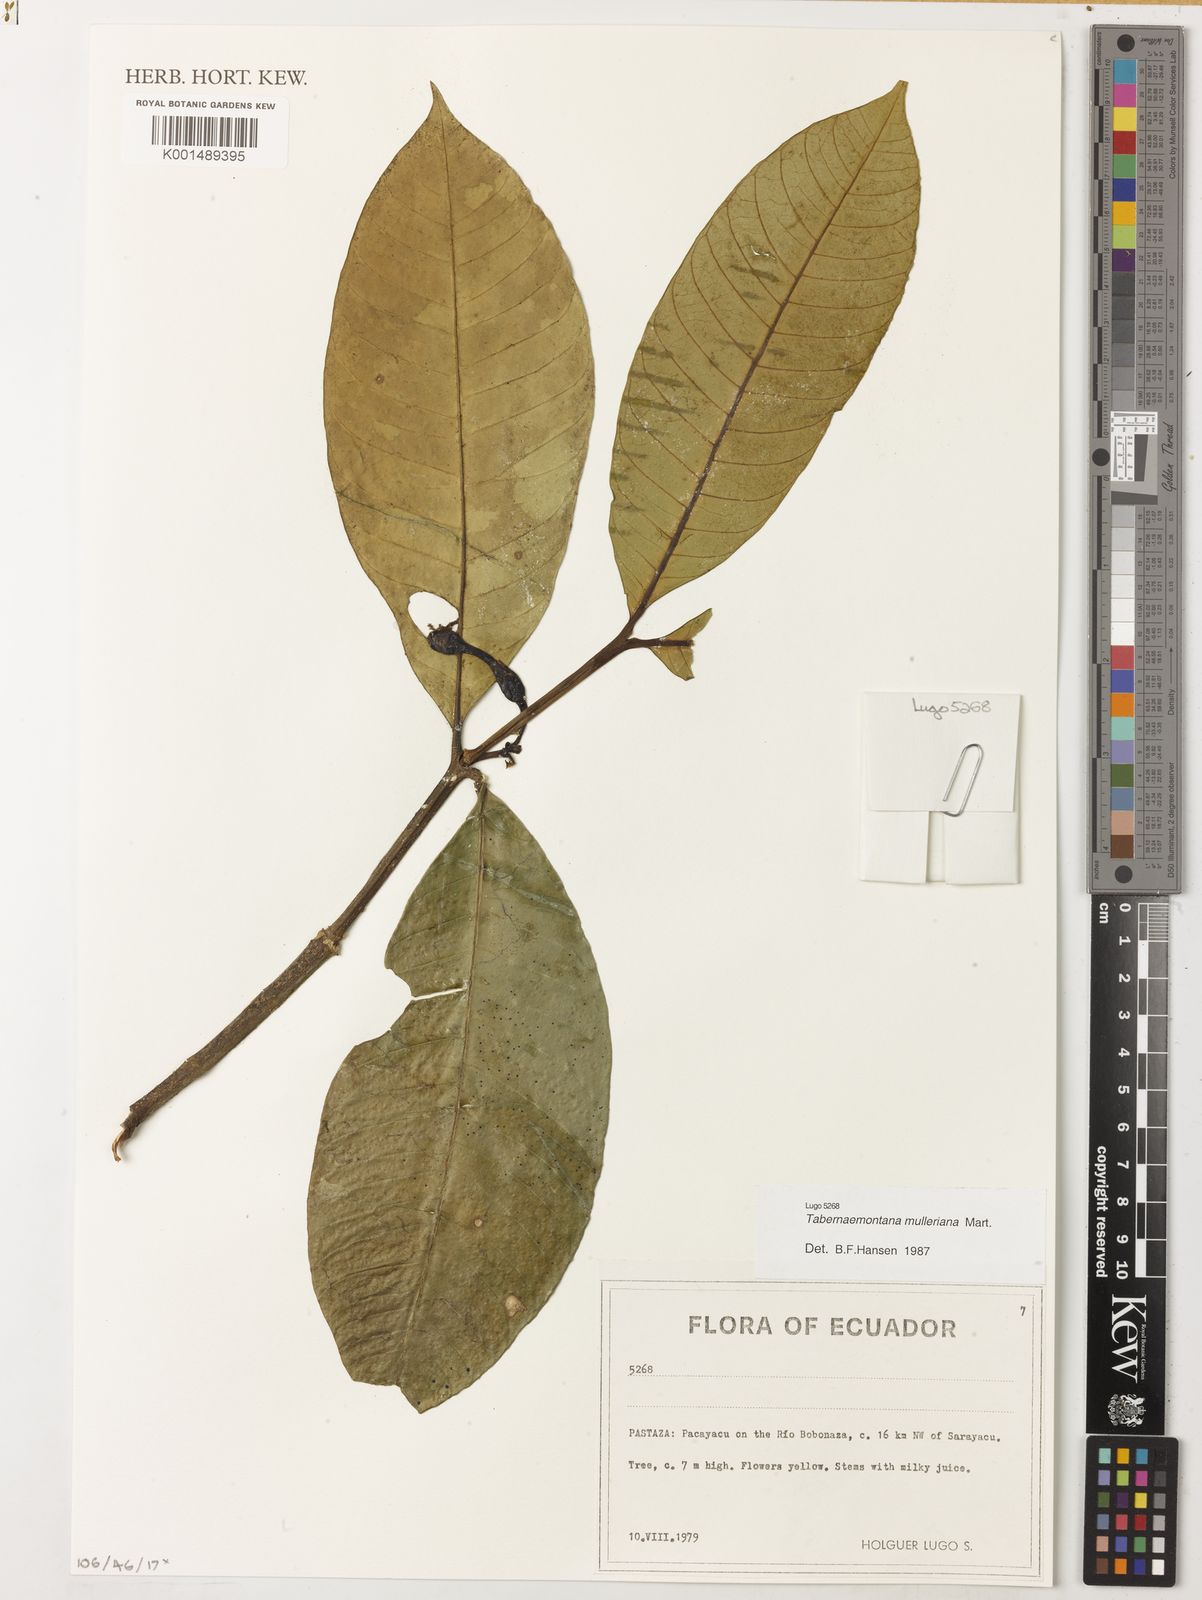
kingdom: Plantae
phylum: Tracheophyta
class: Magnoliopsida
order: Gentianales
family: Apocynaceae
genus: Tabernaemontana
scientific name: Tabernaemontana macrocalyx
